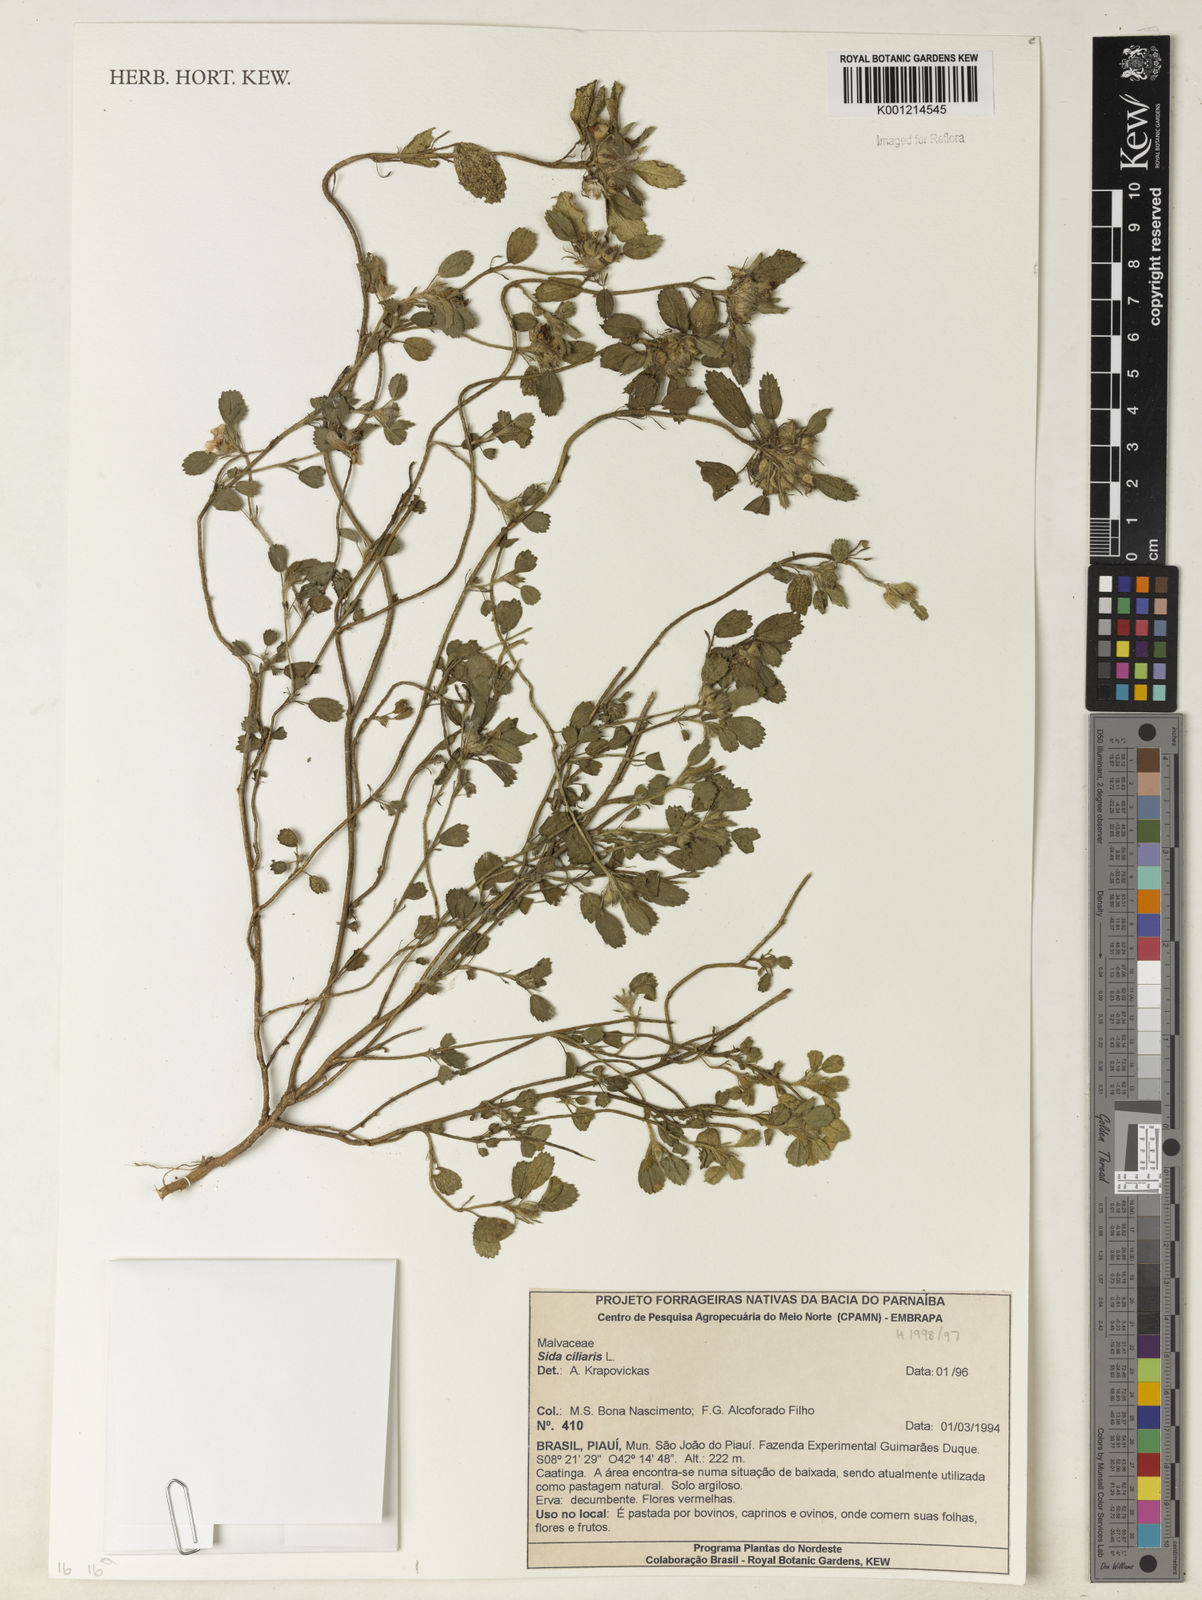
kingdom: Plantae
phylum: Tracheophyta
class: Magnoliopsida
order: Malvales
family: Malvaceae
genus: Sida
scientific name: Sida ciliaris
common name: Bracted fanpetals
